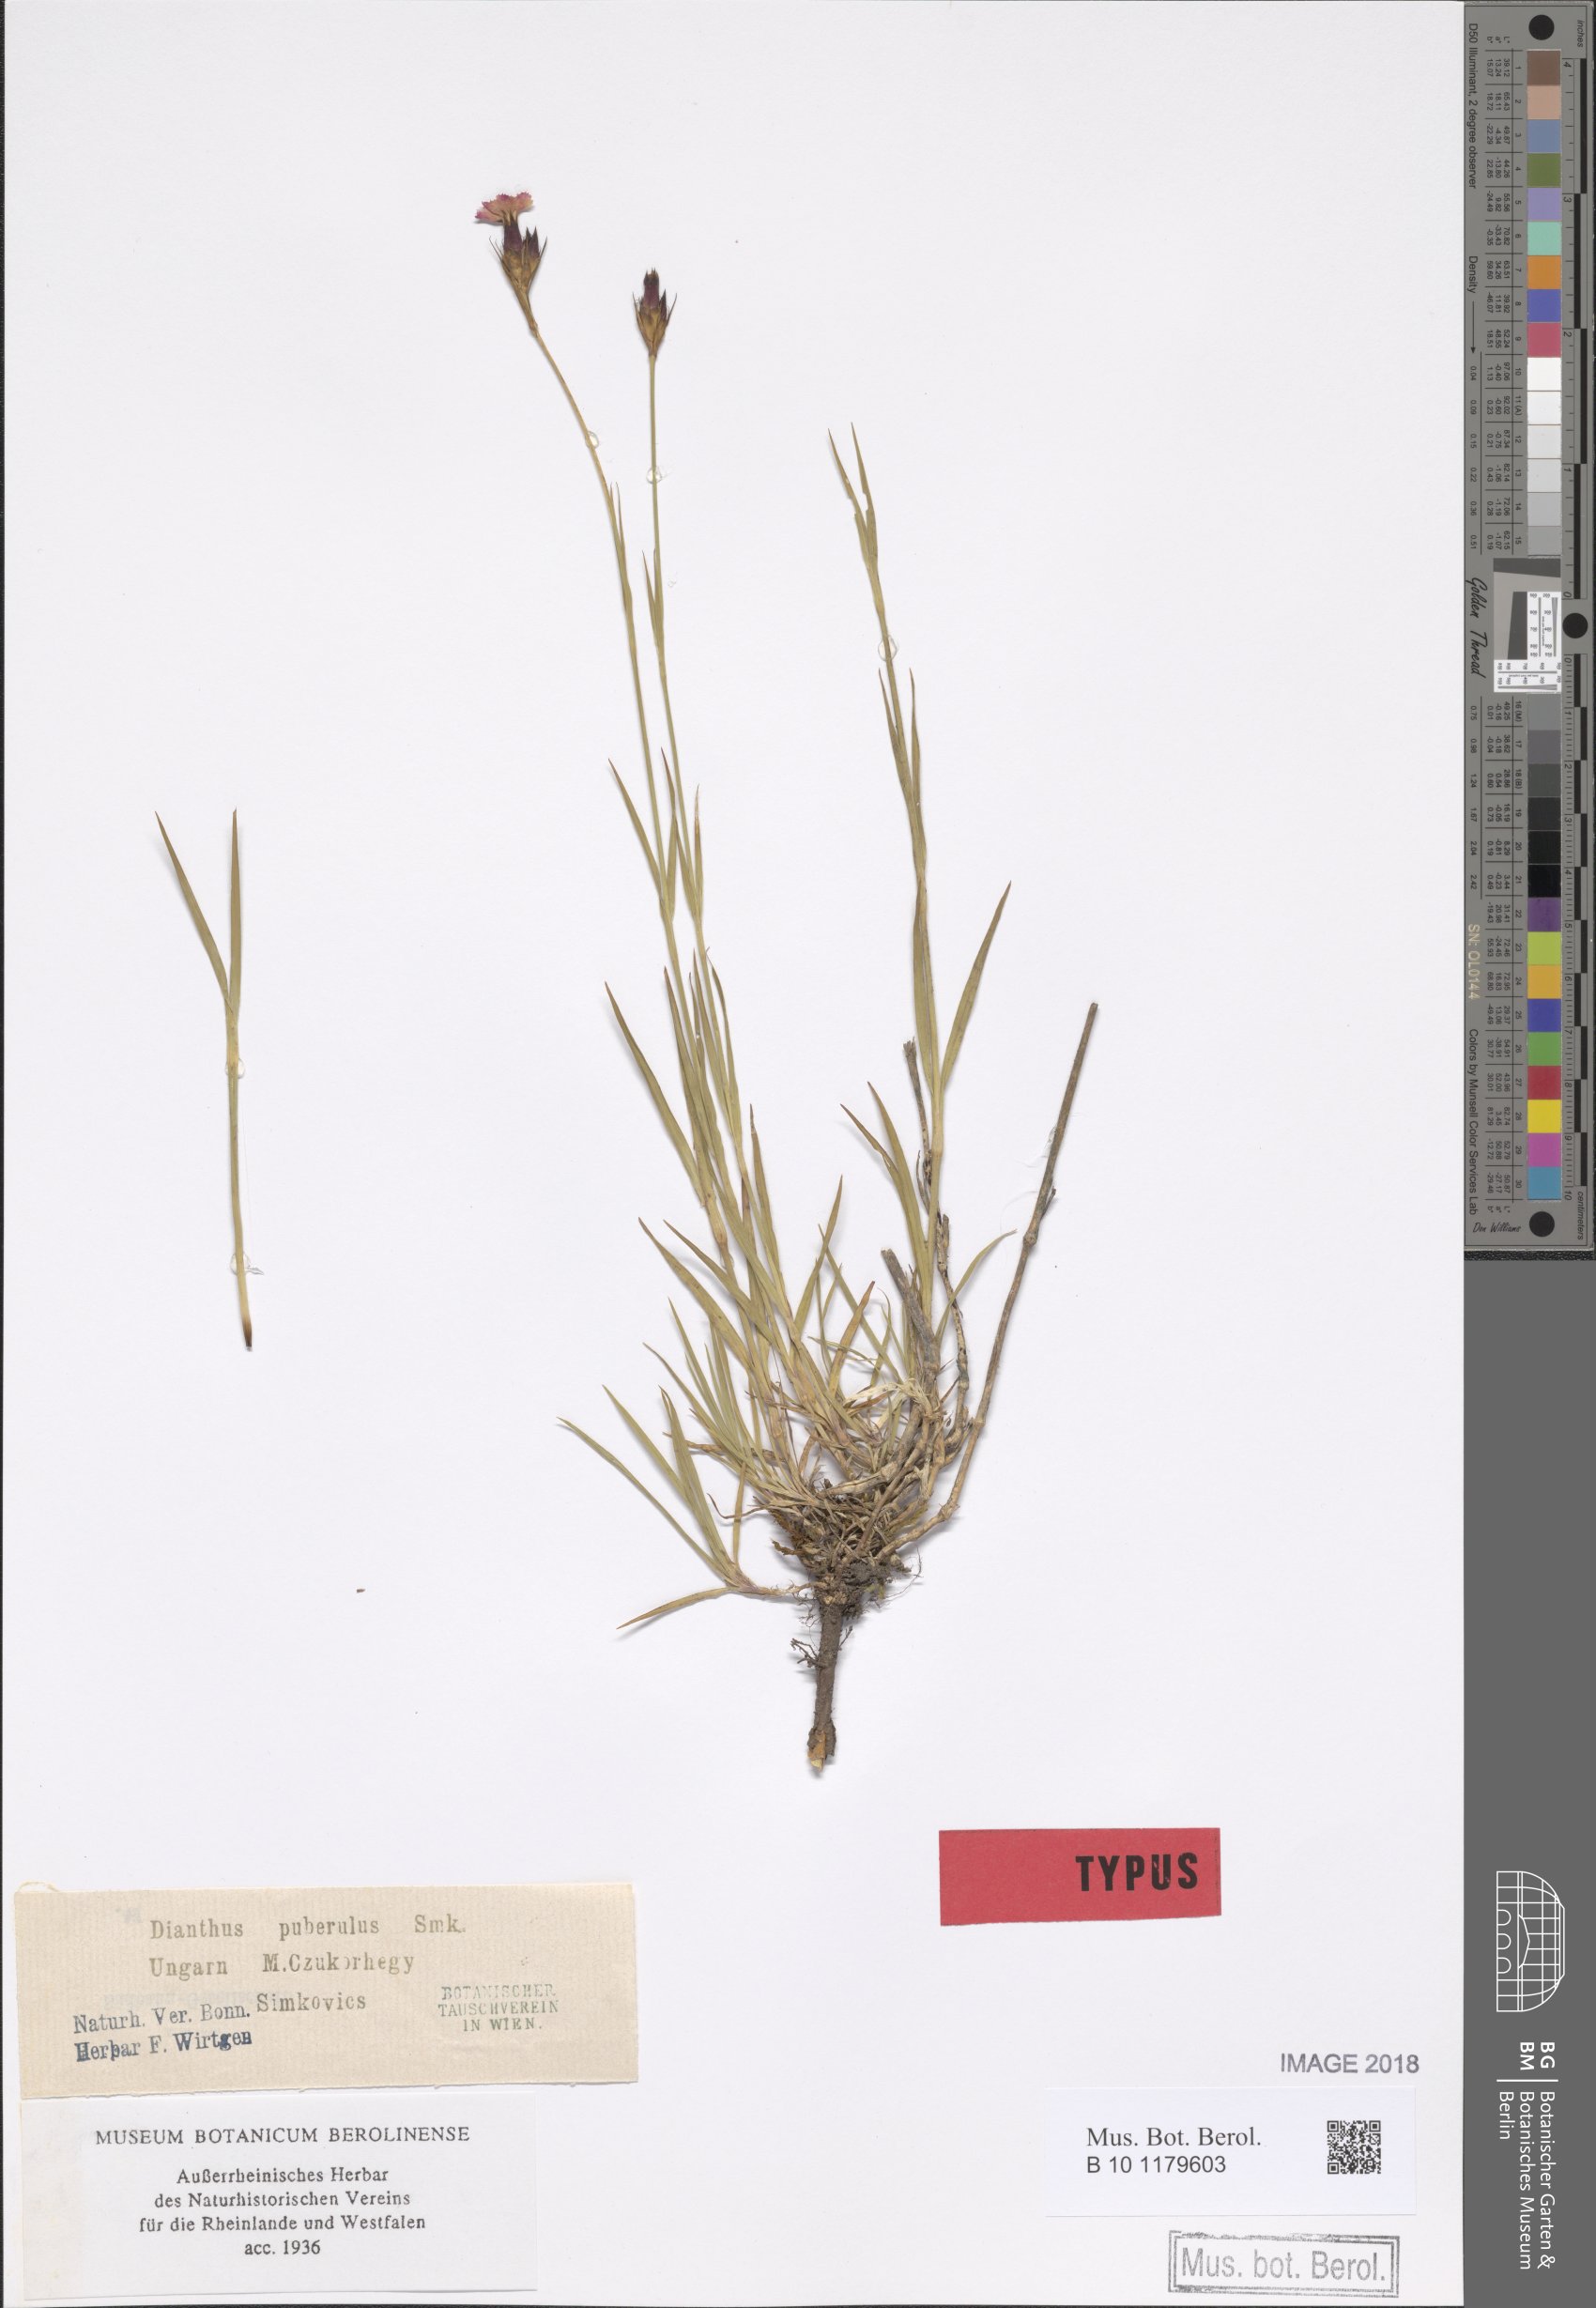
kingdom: Plantae
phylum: Tracheophyta
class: Magnoliopsida
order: Caryophyllales
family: Caryophyllaceae
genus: Dianthus
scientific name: Dianthus carthusianorum
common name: Carthusian pink
